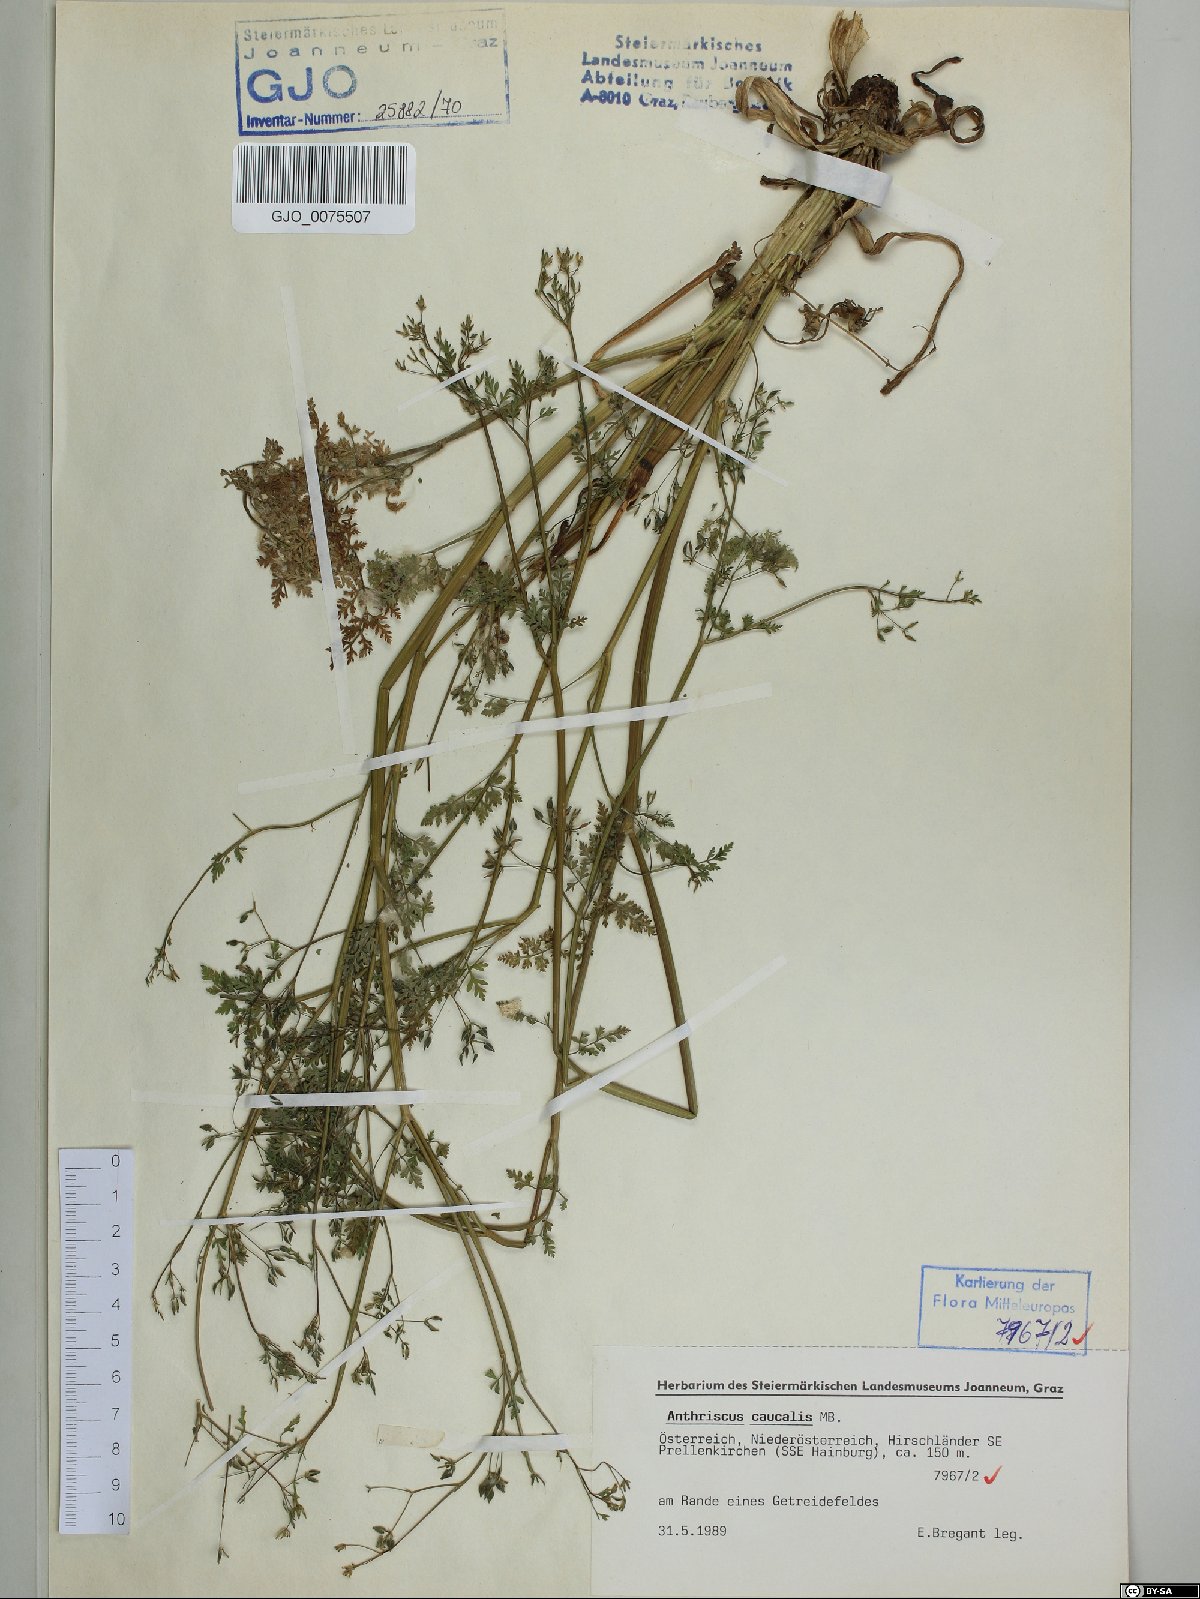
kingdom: Plantae
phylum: Tracheophyta
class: Magnoliopsida
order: Apiales
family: Apiaceae
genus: Anthriscus
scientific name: Anthriscus caucalis
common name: Bur chervil
